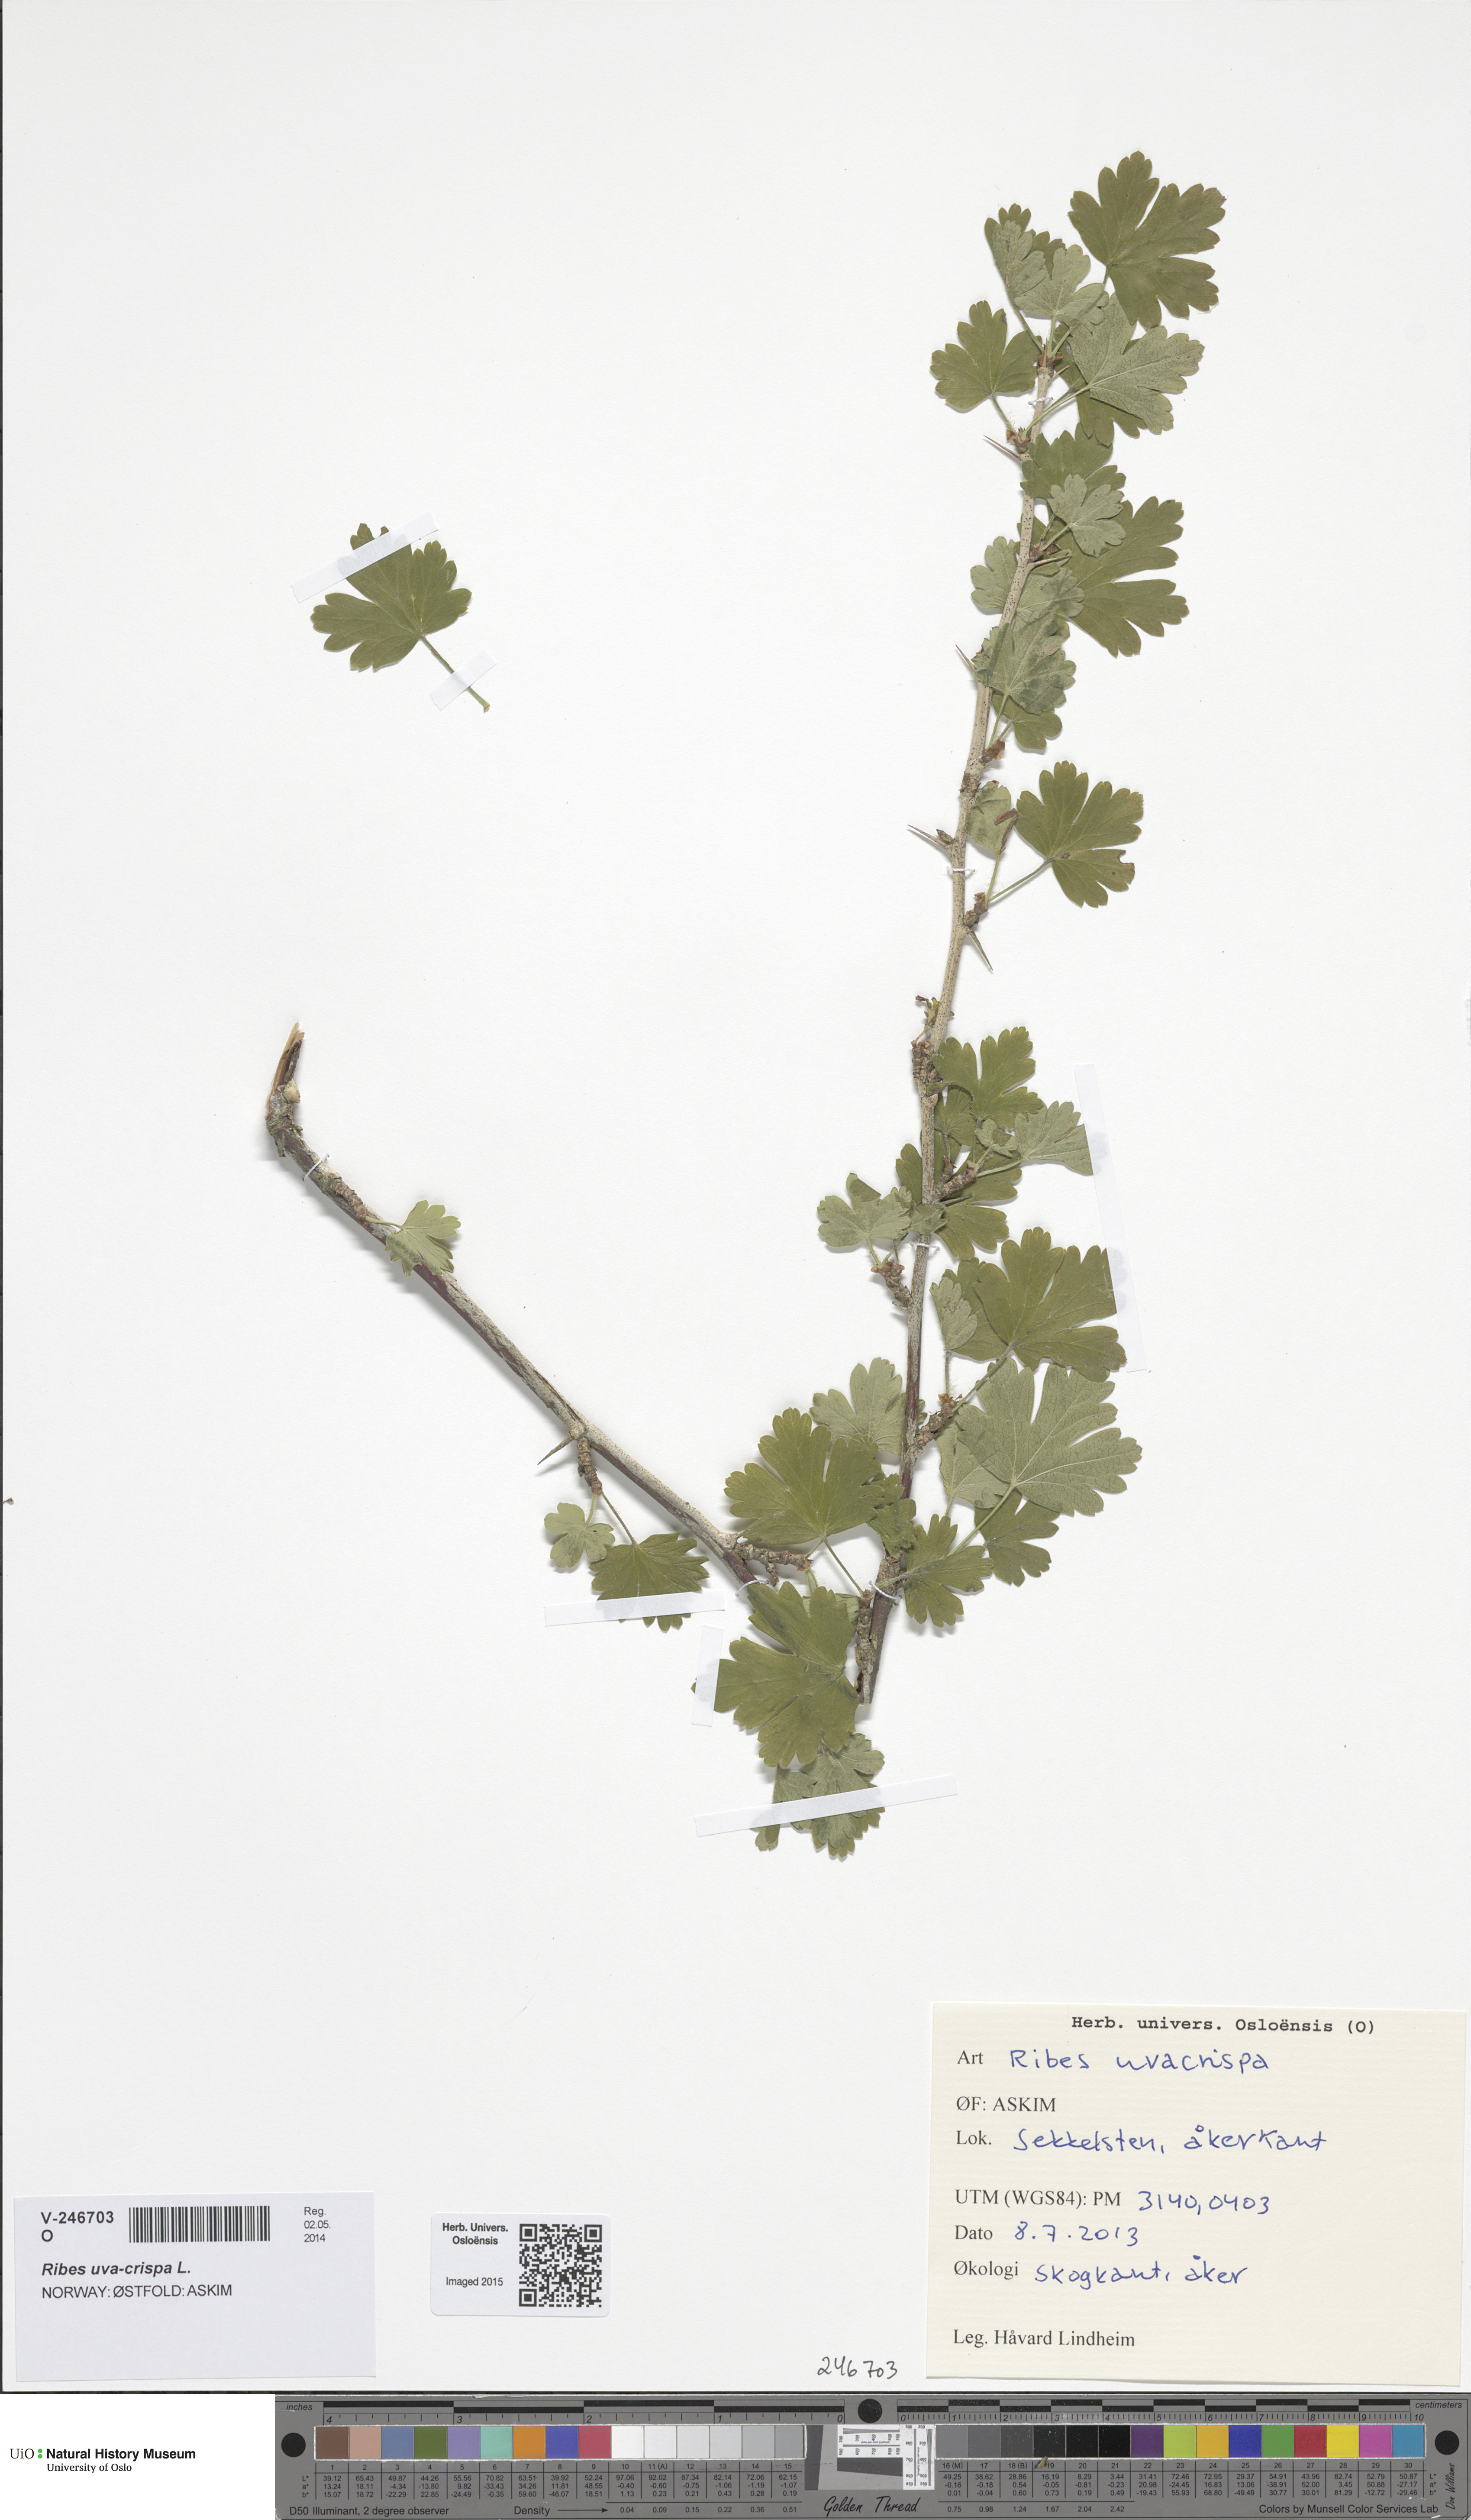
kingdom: Plantae
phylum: Tracheophyta
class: Magnoliopsida
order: Saxifragales
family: Grossulariaceae
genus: Ribes
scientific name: Ribes uva-crispa
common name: Gooseberry
